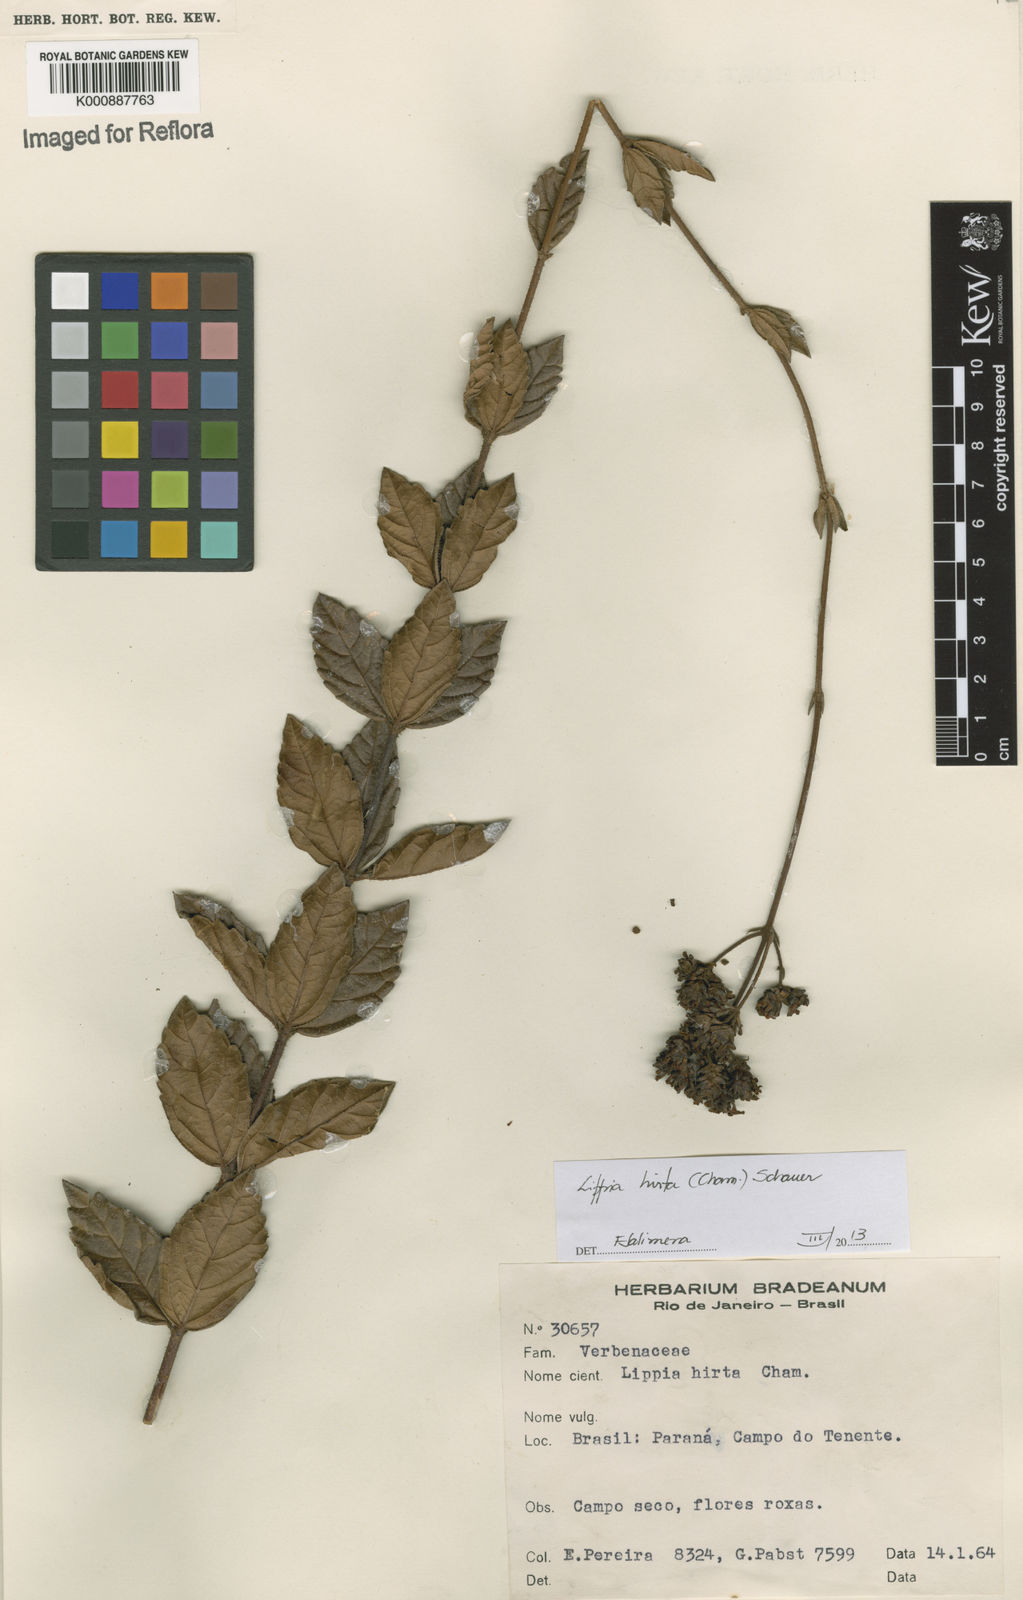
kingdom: Plantae
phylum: Tracheophyta
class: Magnoliopsida
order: Lamiales
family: Verbenaceae
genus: Lippia
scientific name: Lippia
